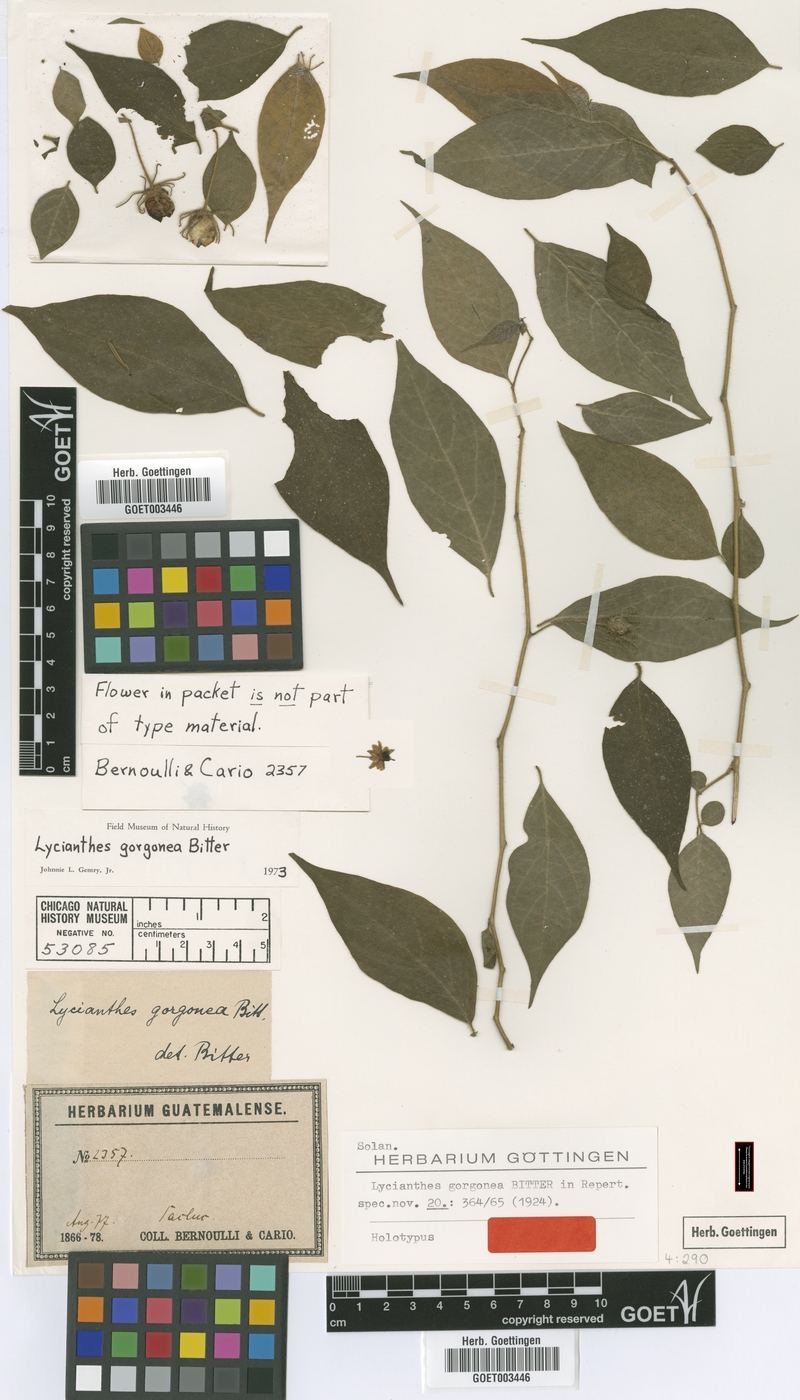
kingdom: Plantae
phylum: Tracheophyta
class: Magnoliopsida
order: Solanales
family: Solanaceae
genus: Lycianthes
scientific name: Lycianthes gorgonea
